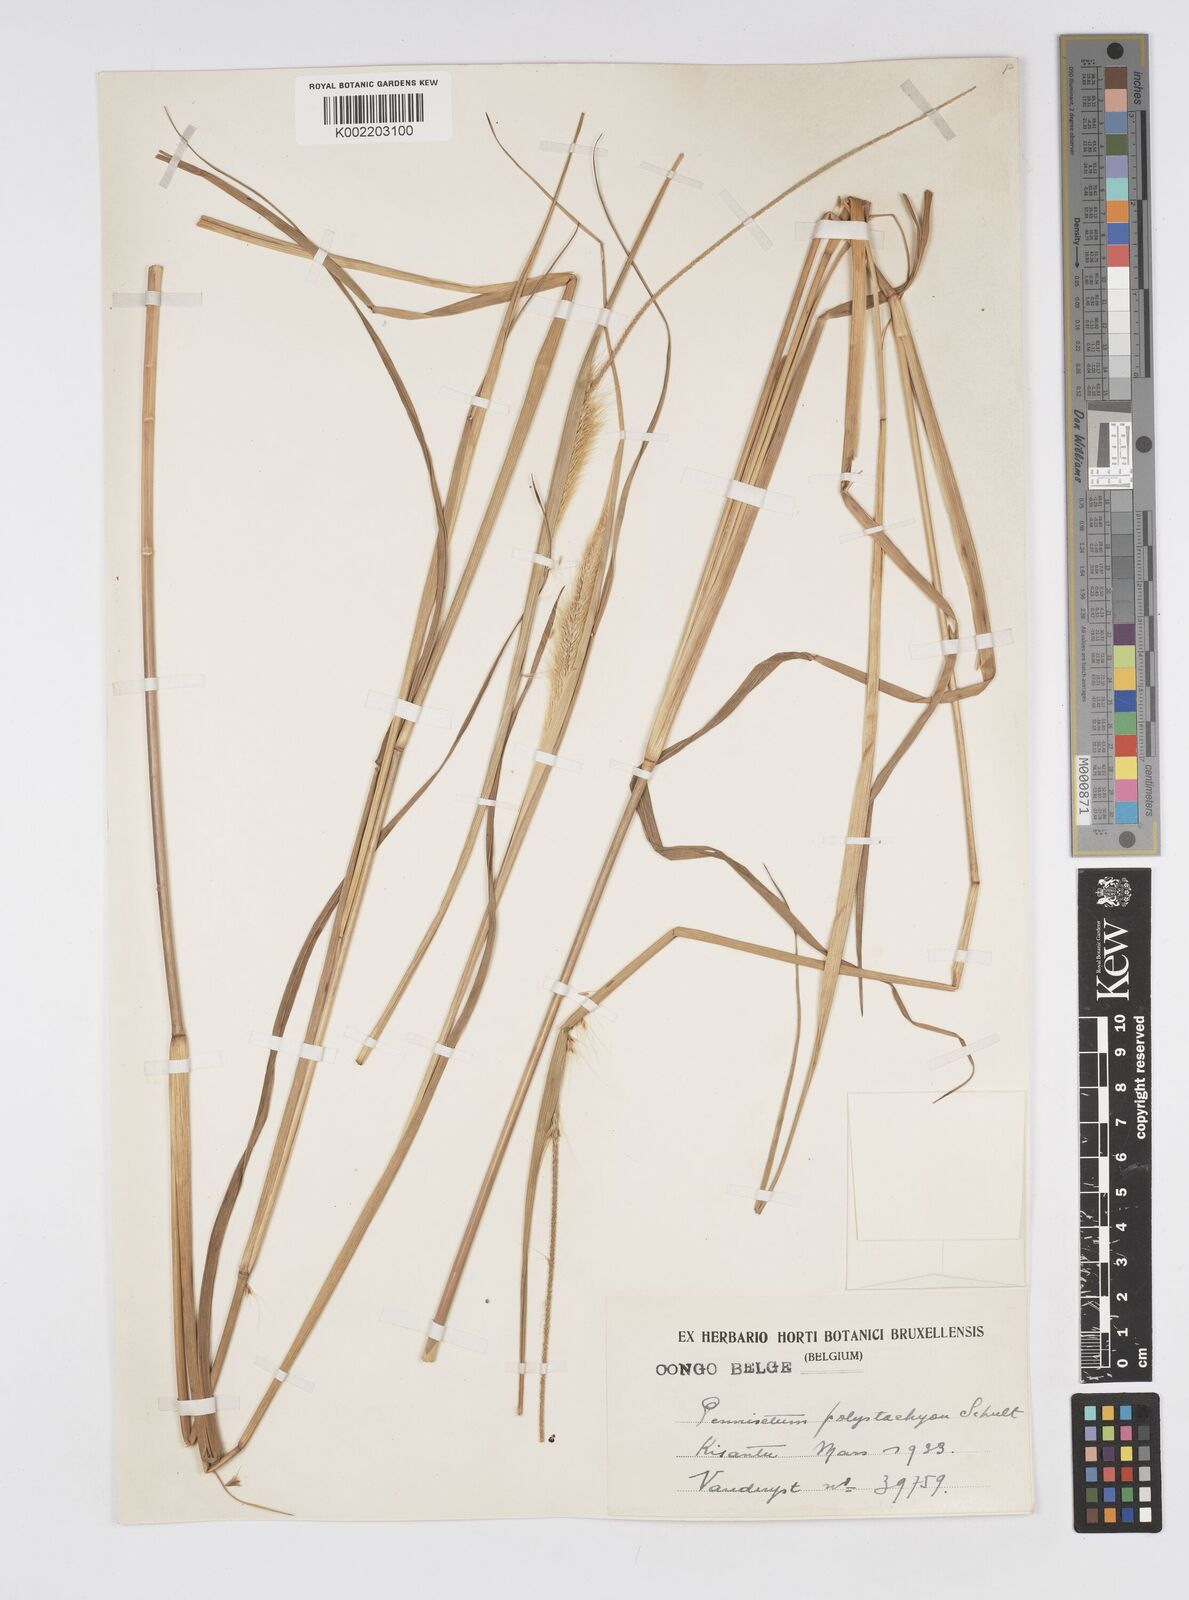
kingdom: Plantae
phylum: Tracheophyta
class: Liliopsida
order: Poales
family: Poaceae
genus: Setaria
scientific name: Setaria parviflora
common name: Knotroot bristle-grass
